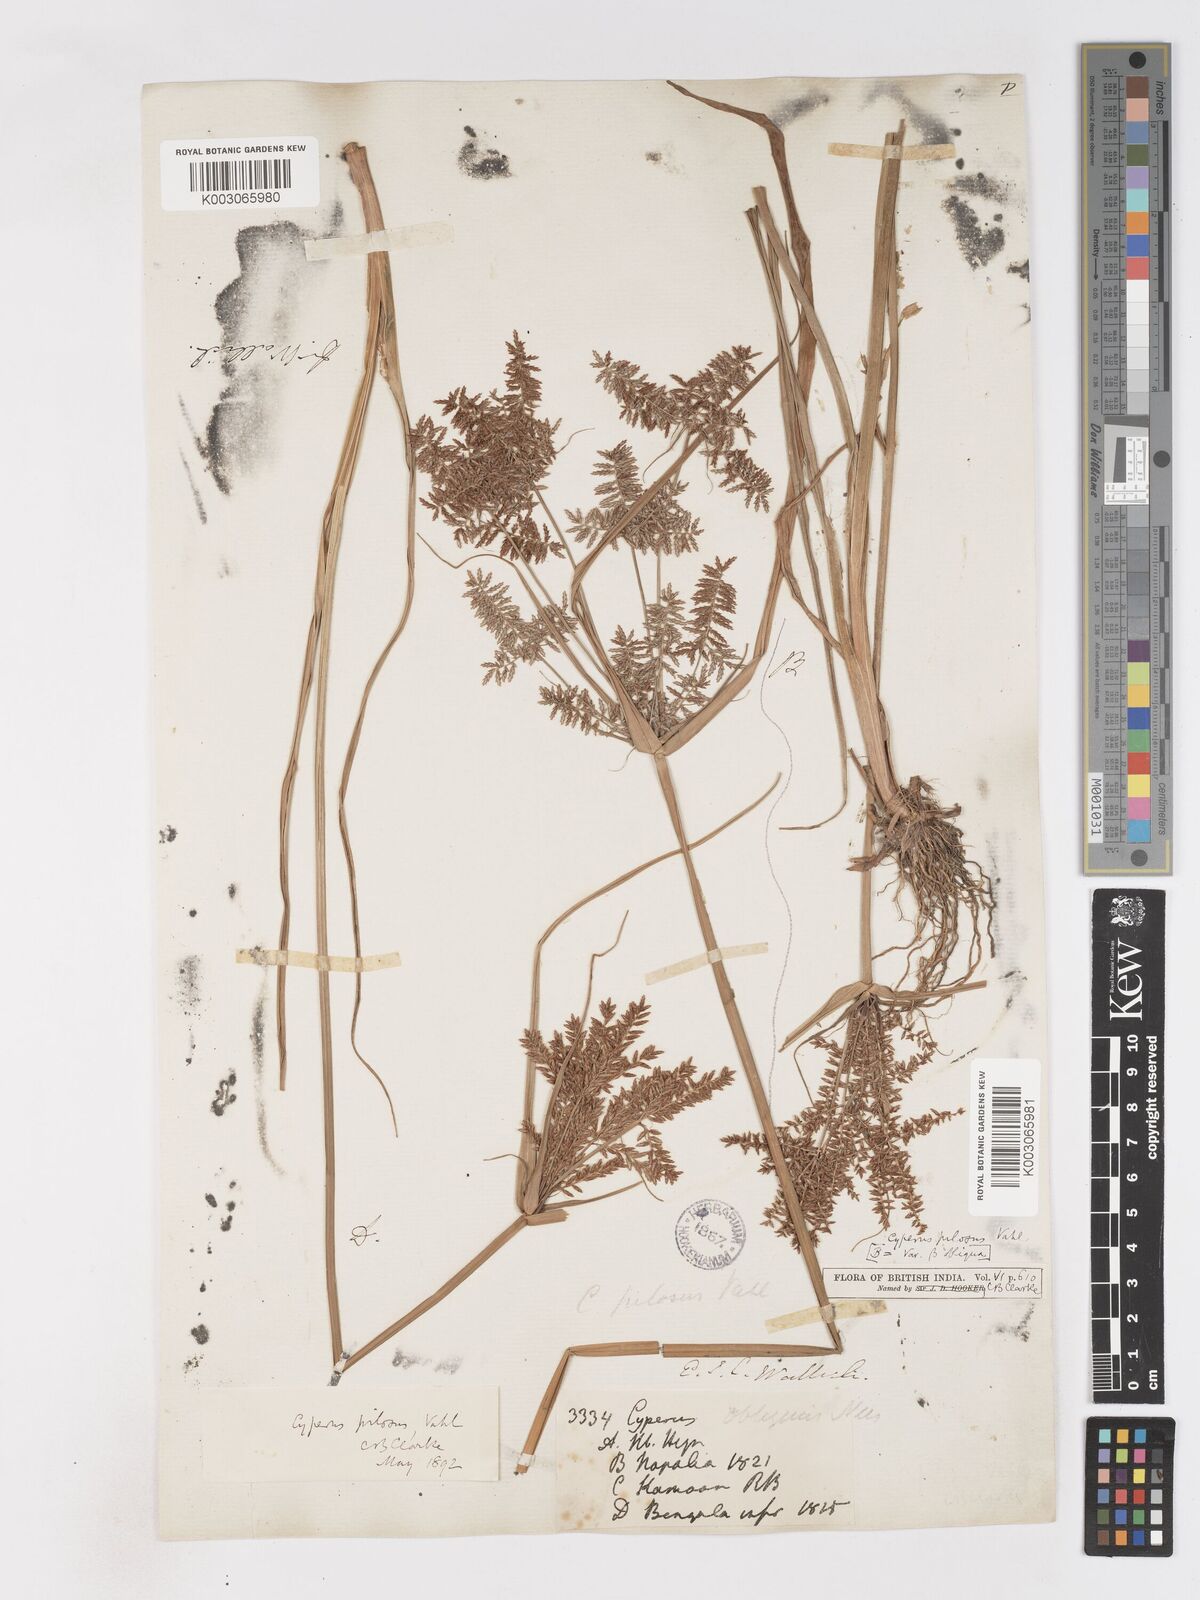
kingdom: Plantae
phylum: Tracheophyta
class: Liliopsida
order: Poales
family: Cyperaceae
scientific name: Cyperaceae
